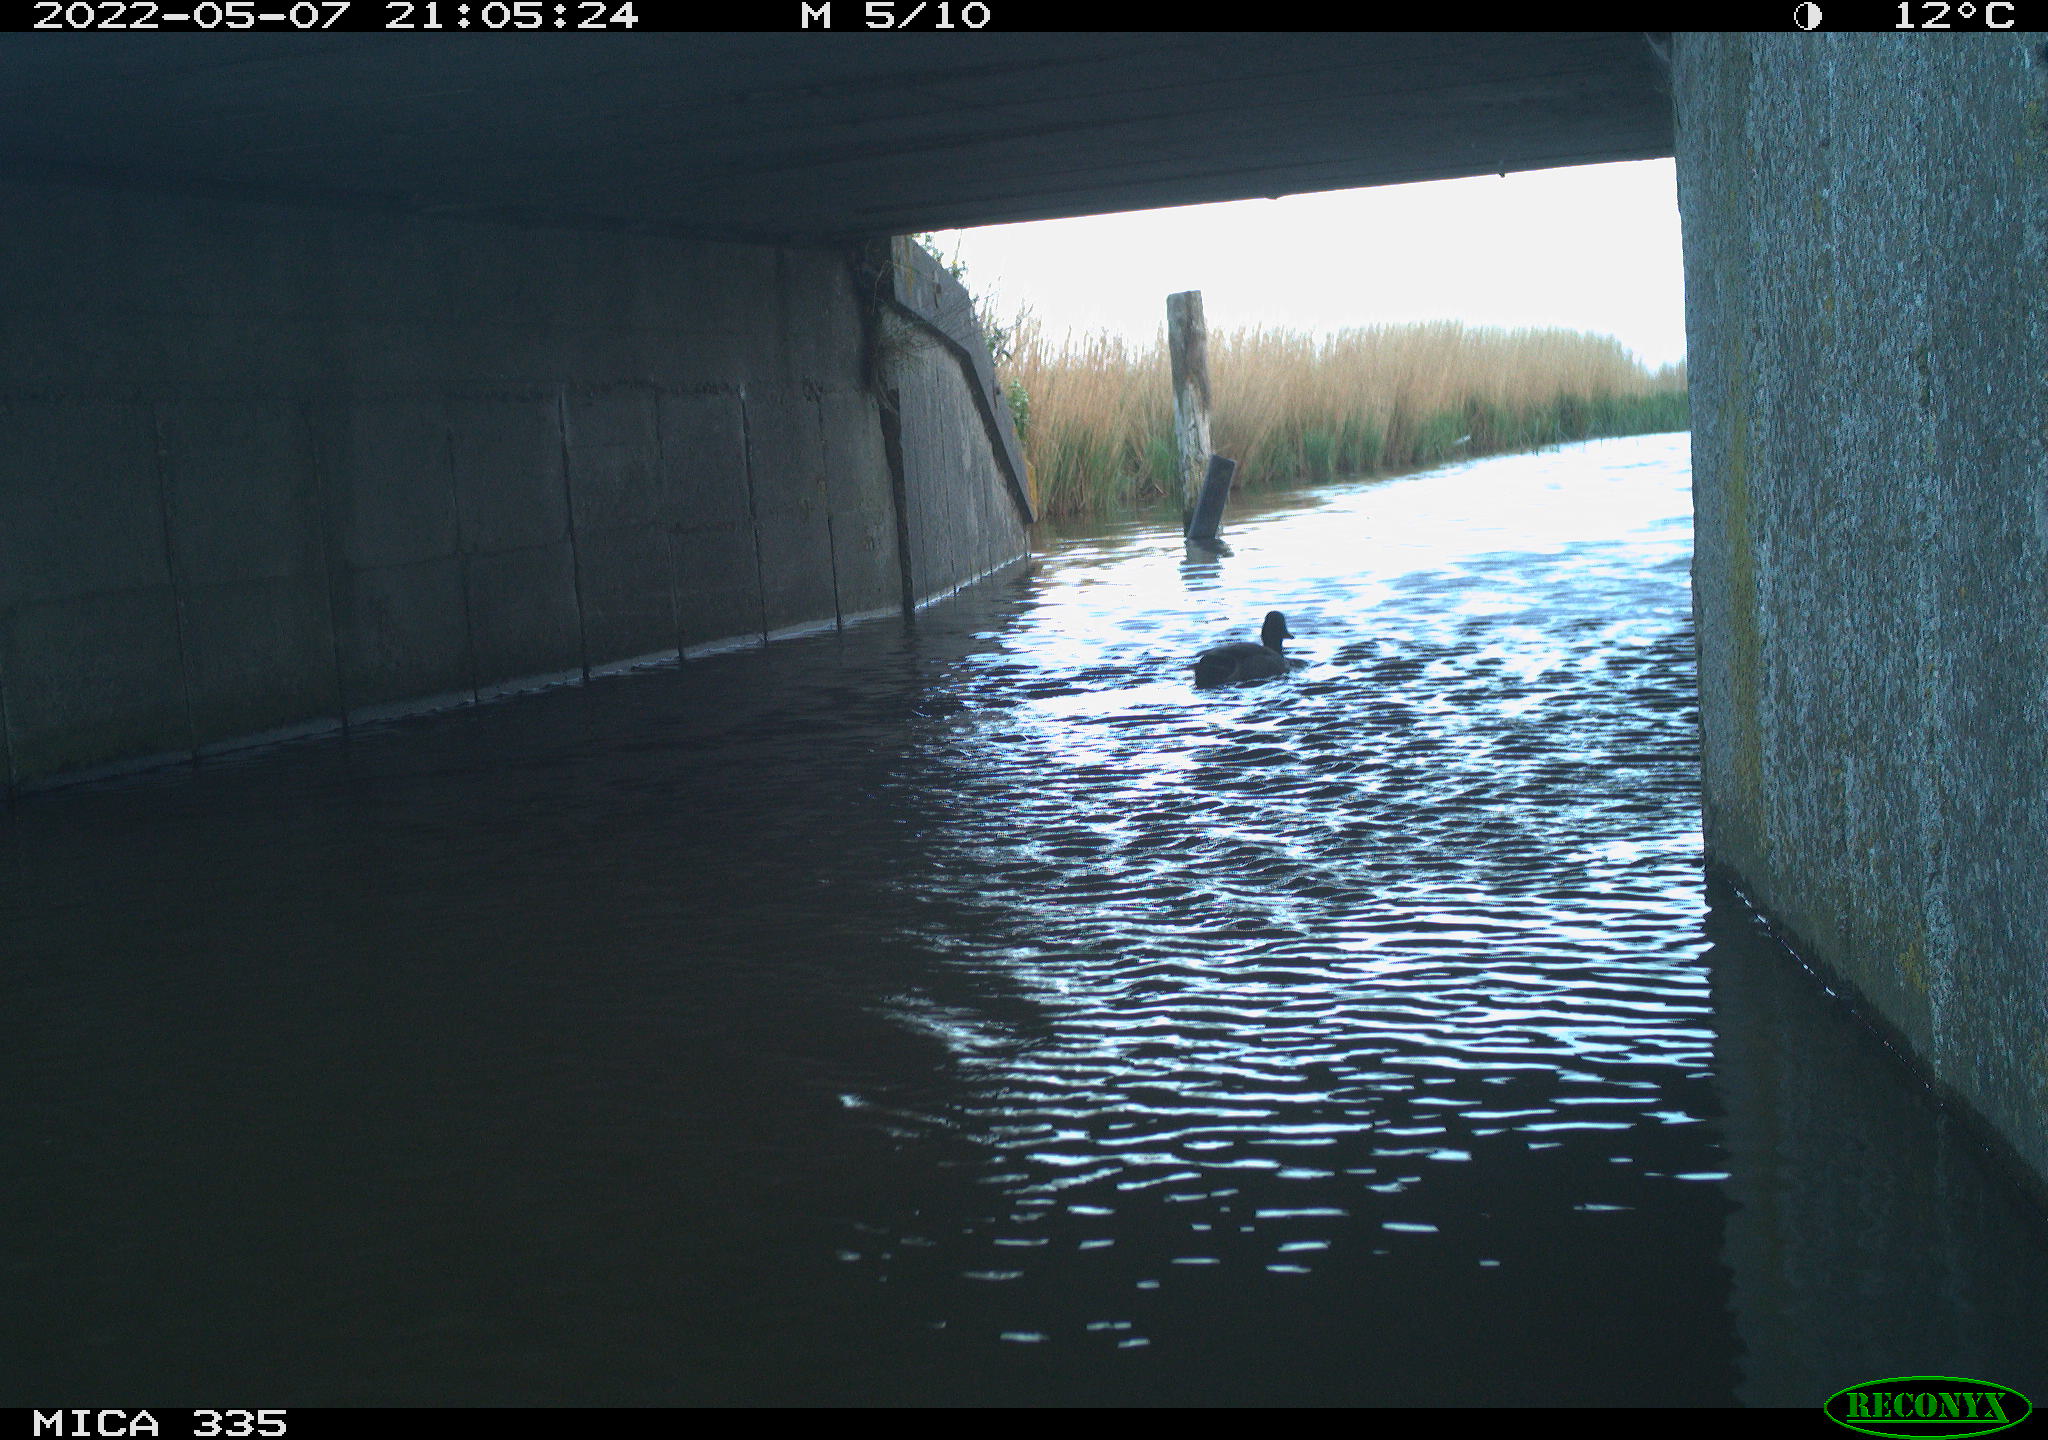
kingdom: Animalia
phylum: Chordata
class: Aves
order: Anseriformes
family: Anatidae
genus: Anas
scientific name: Anas platyrhynchos
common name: Mallard
